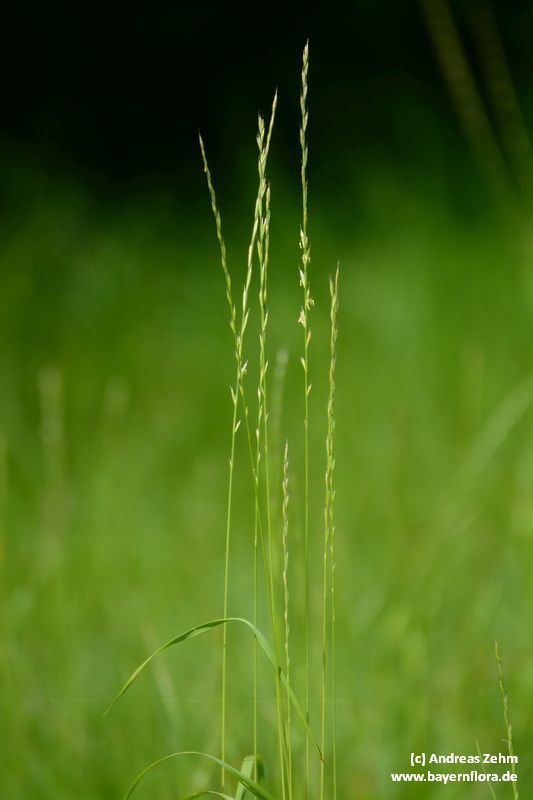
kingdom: Plantae
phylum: Tracheophyta
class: Liliopsida
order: Poales
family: Poaceae
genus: Lolium
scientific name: Lolium multiflorum
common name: Annual ryegrass
